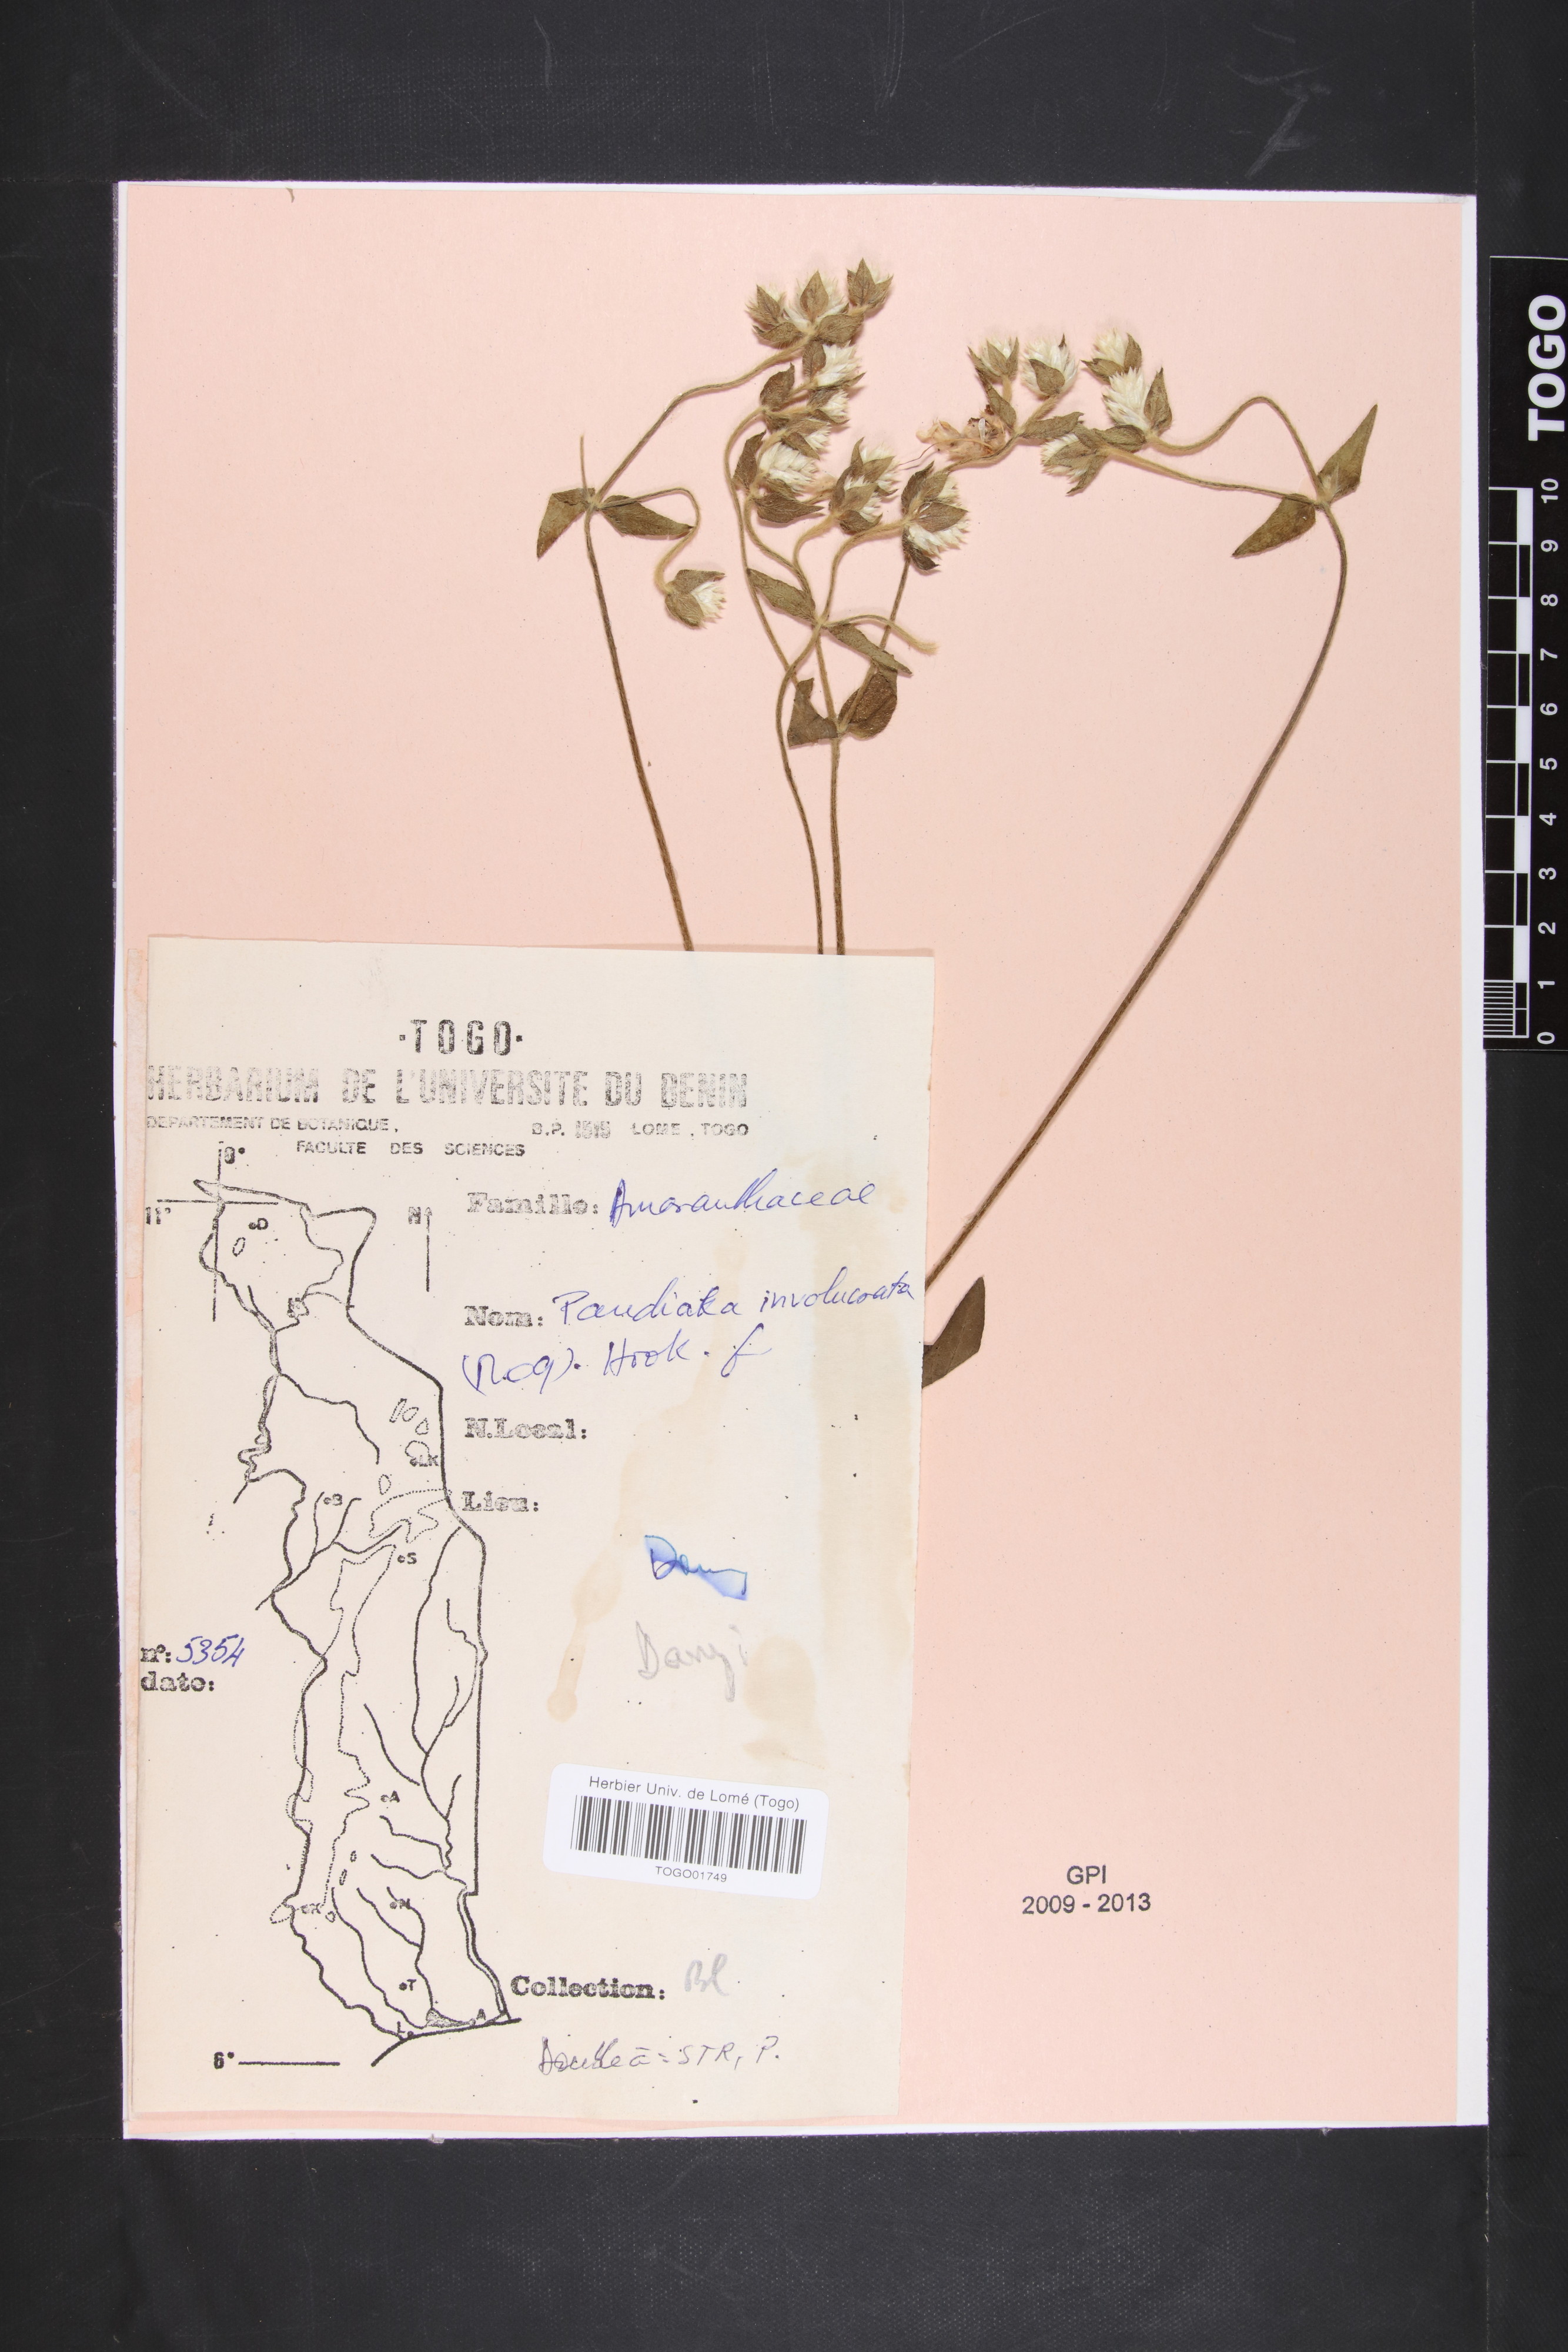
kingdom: Plantae
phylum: Tracheophyta
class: Magnoliopsida
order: Caryophyllales
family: Amaranthaceae
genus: Pandiaka
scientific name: Pandiaka involucrata
